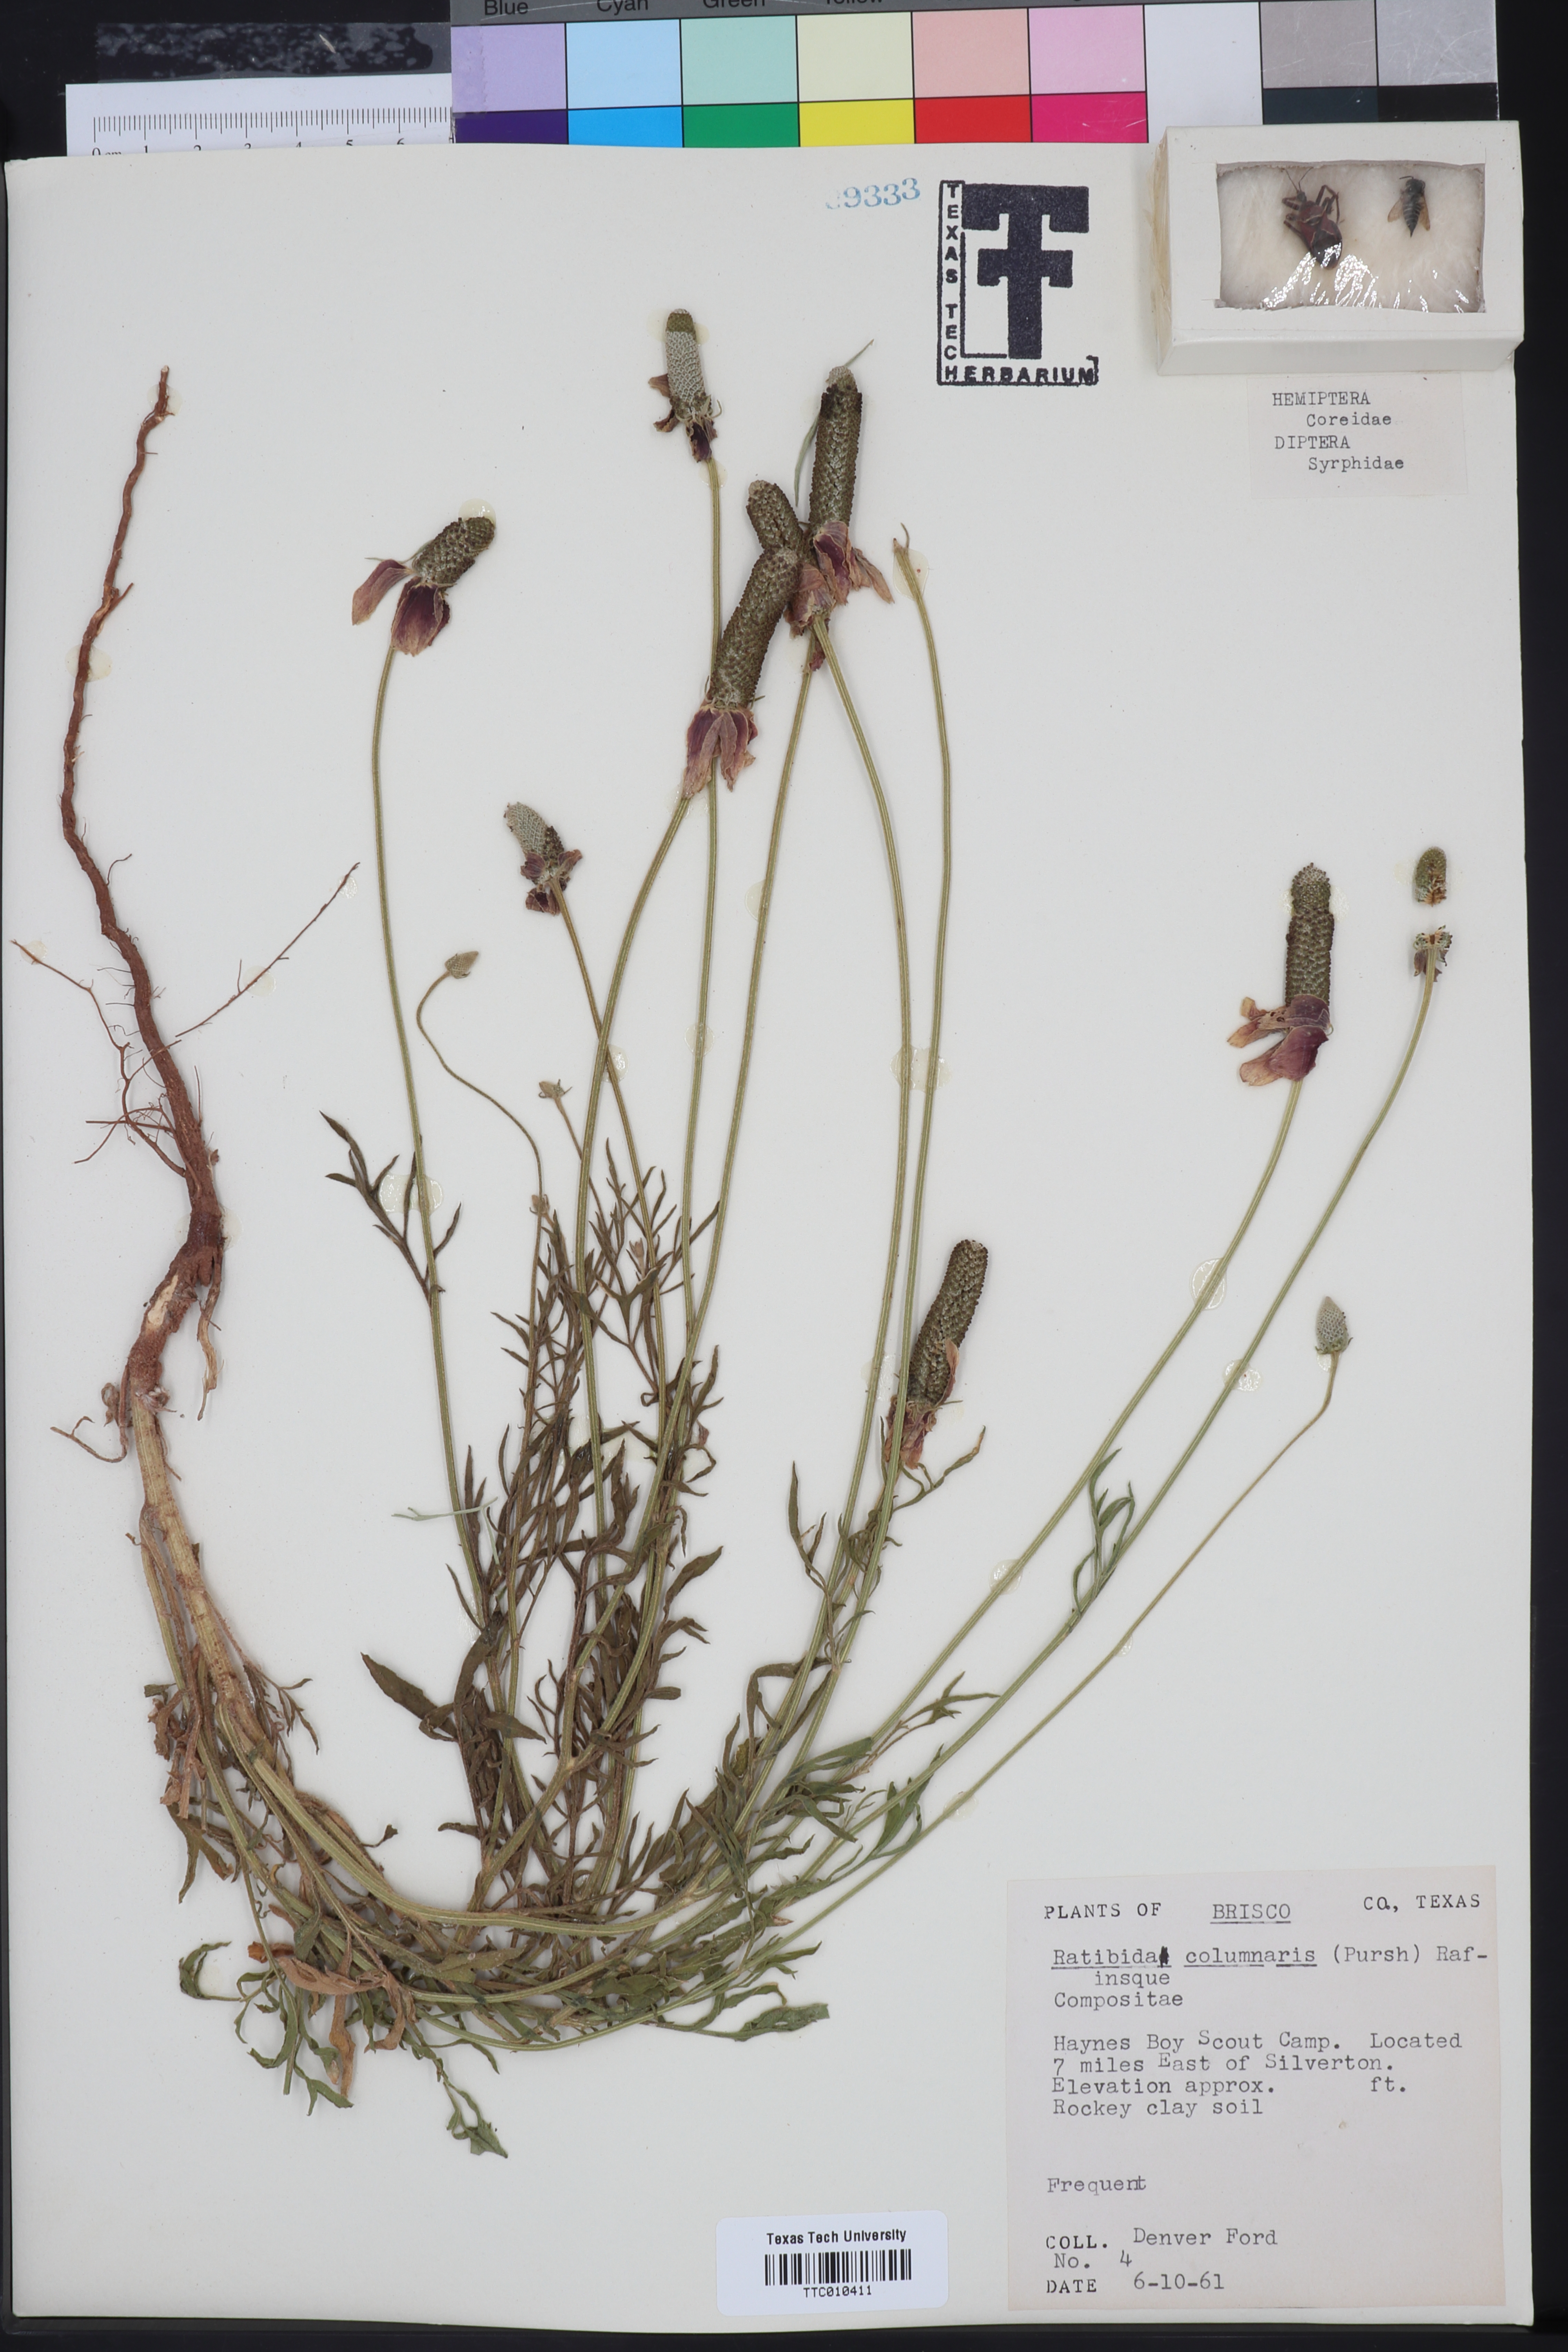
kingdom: Plantae
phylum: Tracheophyta
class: Magnoliopsida
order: Asterales
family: Asteraceae
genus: Ratibida
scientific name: Ratibida columnifera
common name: Prairie coneflower
